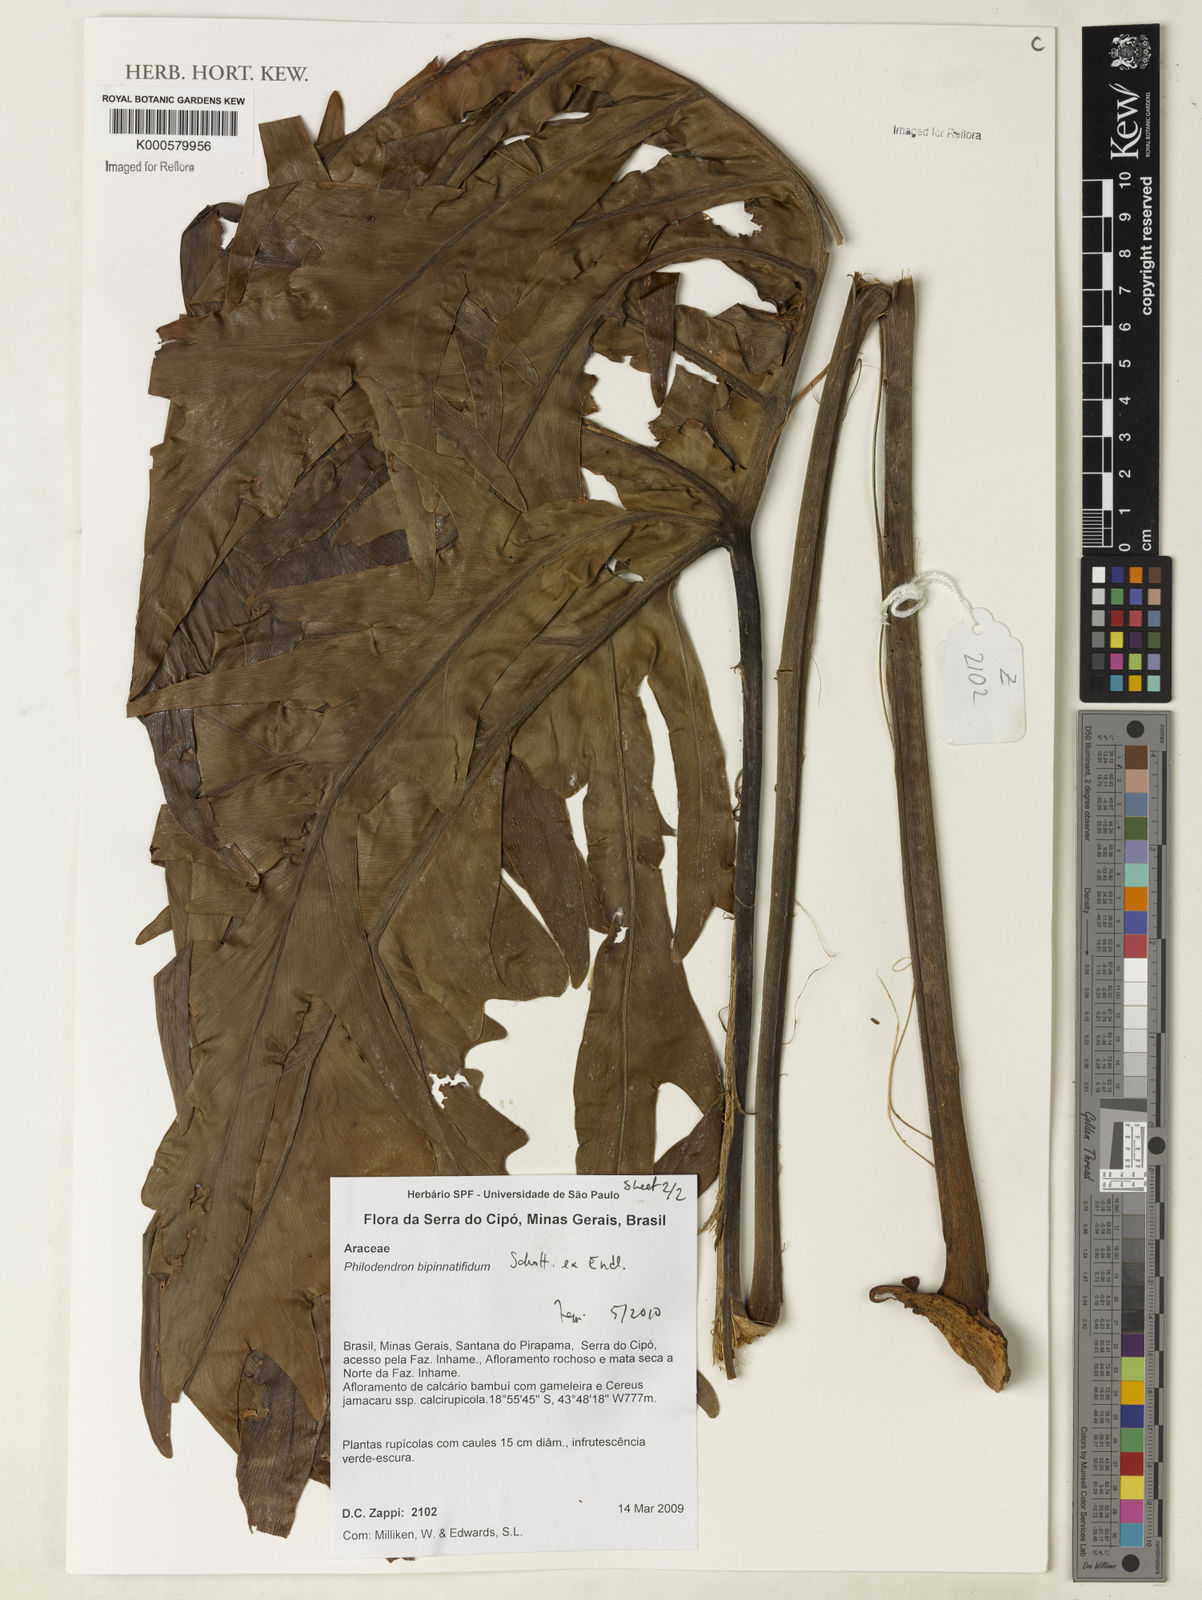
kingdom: Plantae
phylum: Tracheophyta
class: Liliopsida
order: Alismatales
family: Araceae
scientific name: Araceae
